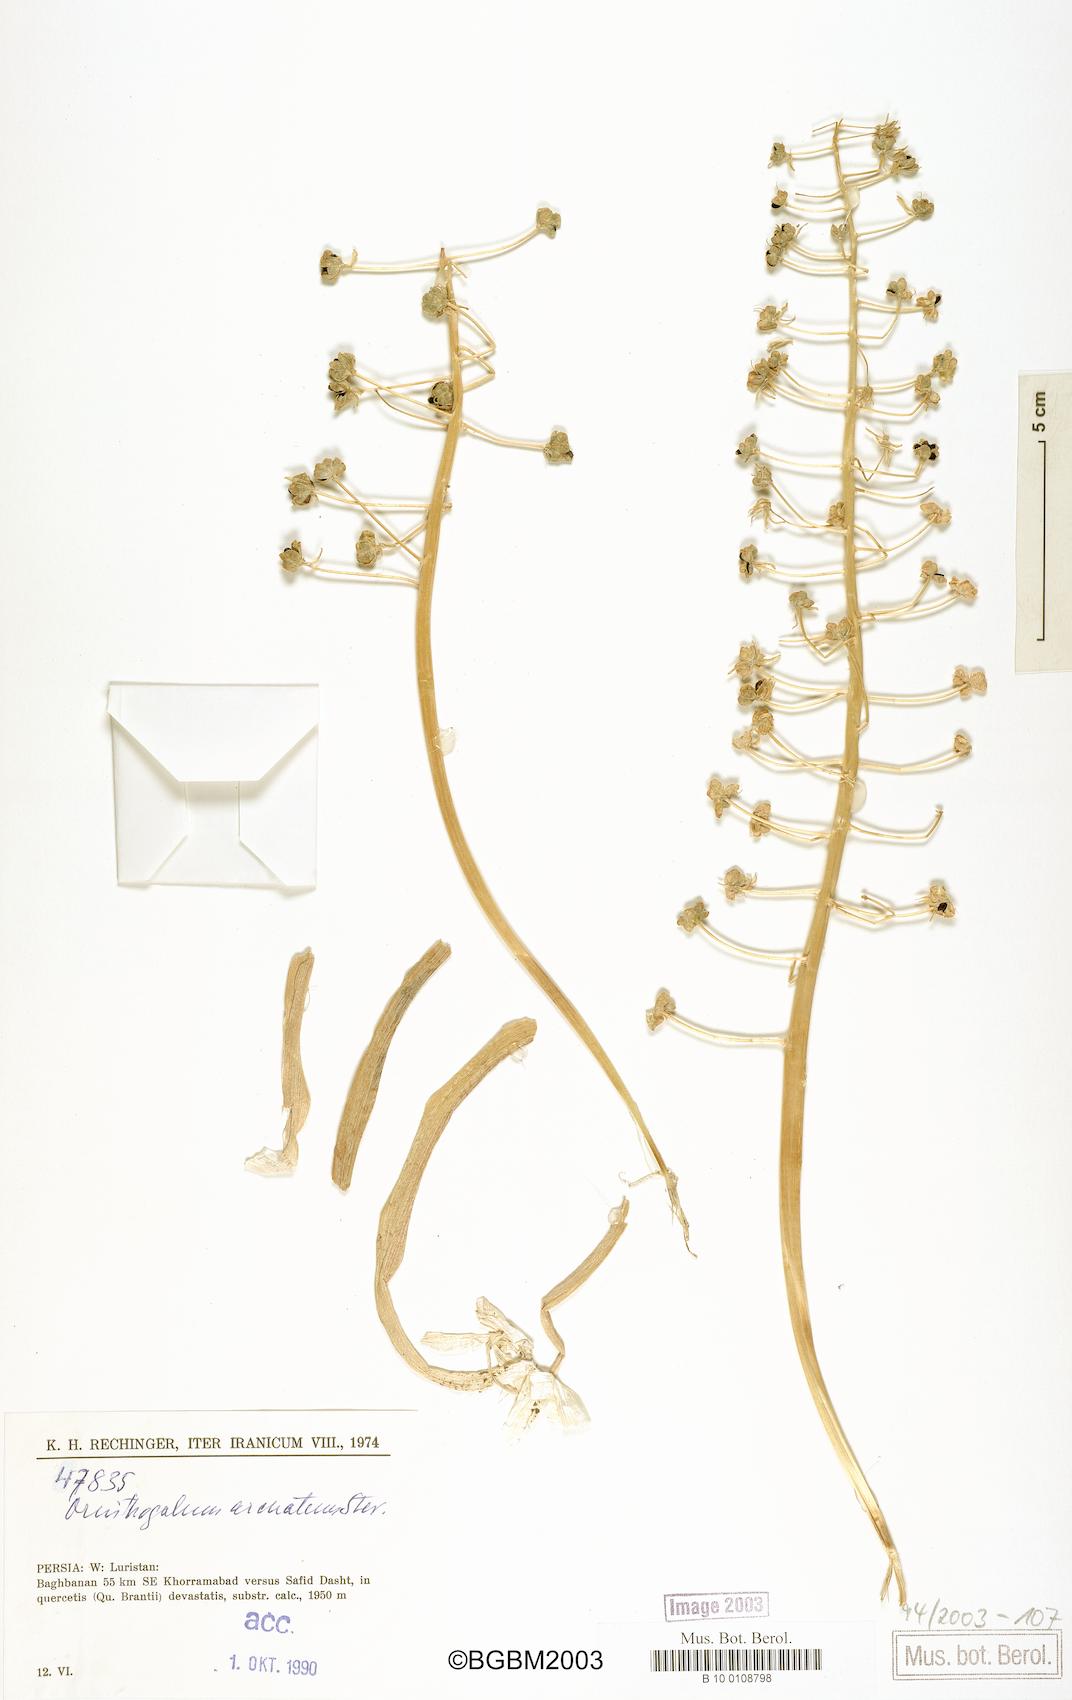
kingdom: Plantae
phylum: Tracheophyta
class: Liliopsida
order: Asparagales
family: Asparagaceae
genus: Ornithogalum
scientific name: Ornithogalum arcuatum
